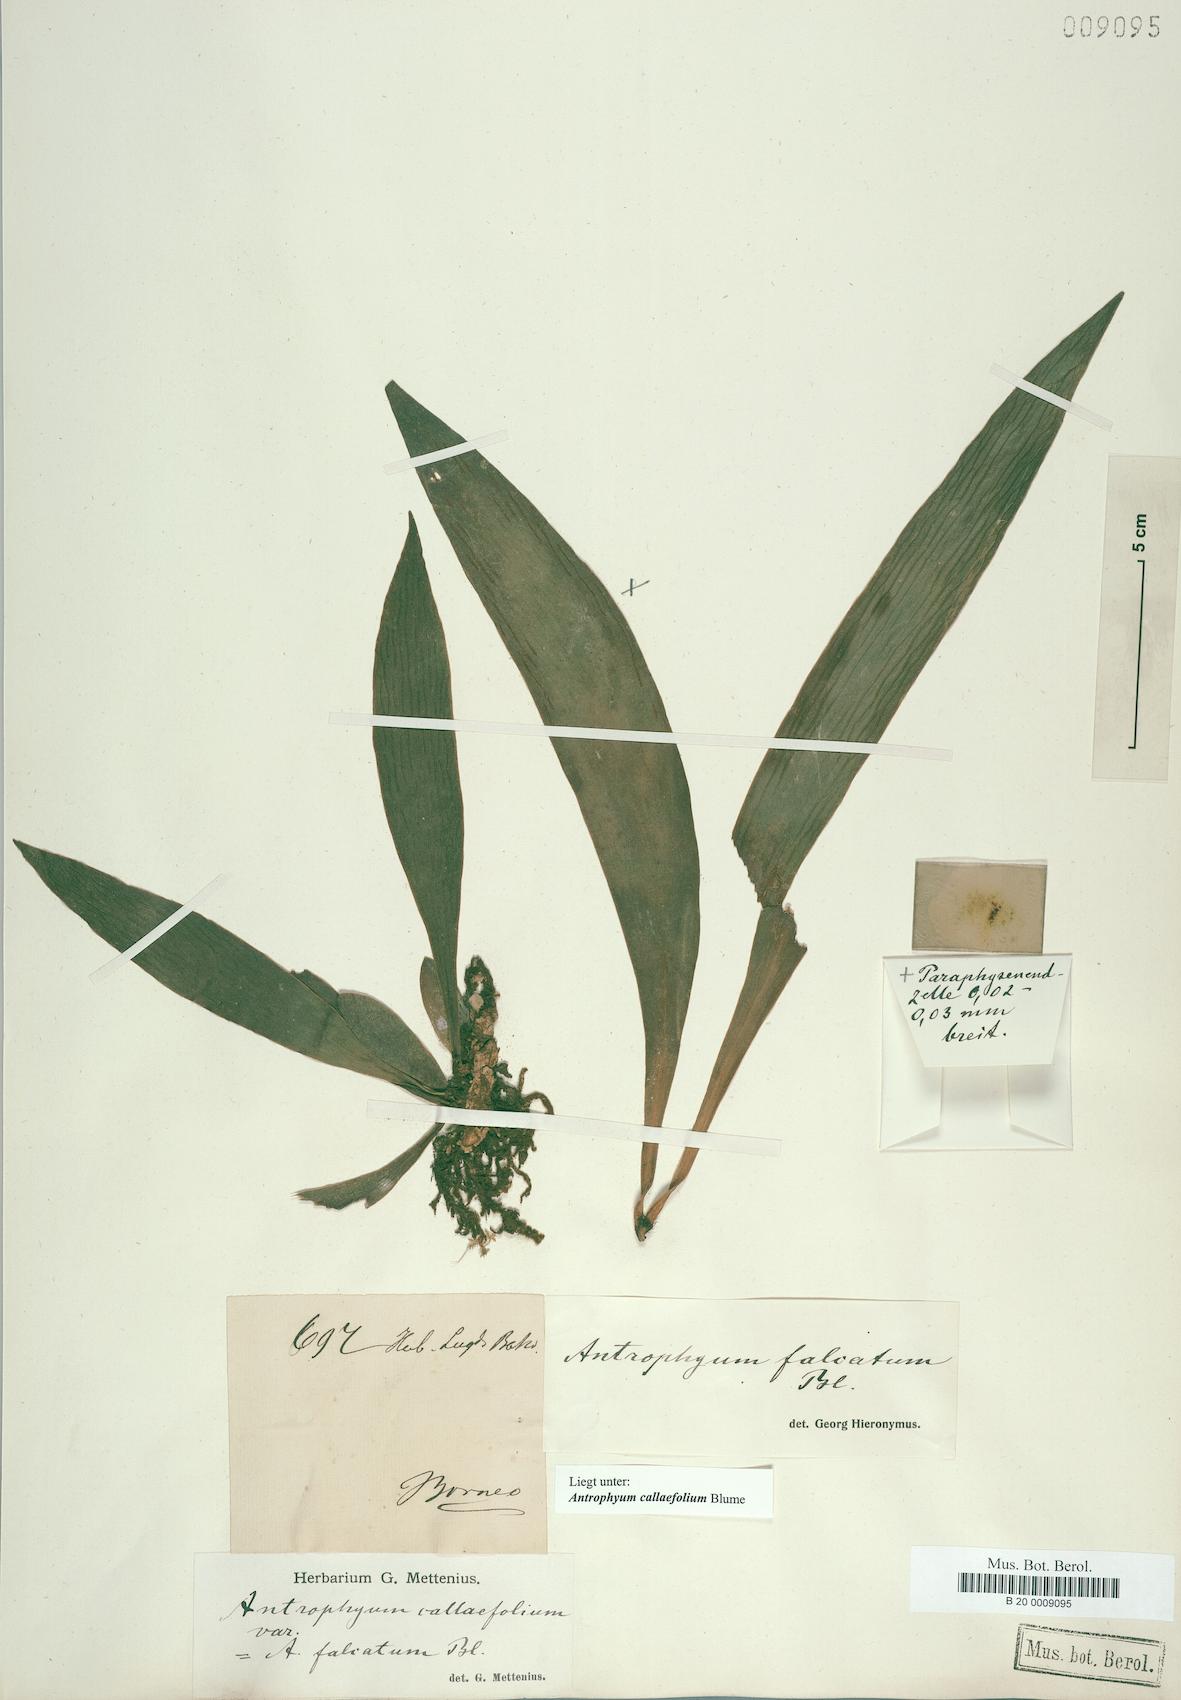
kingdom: Plantae
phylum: Tracheophyta
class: Polypodiopsida
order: Polypodiales
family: Pteridaceae
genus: Antrophyum
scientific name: Antrophyum callifolium
